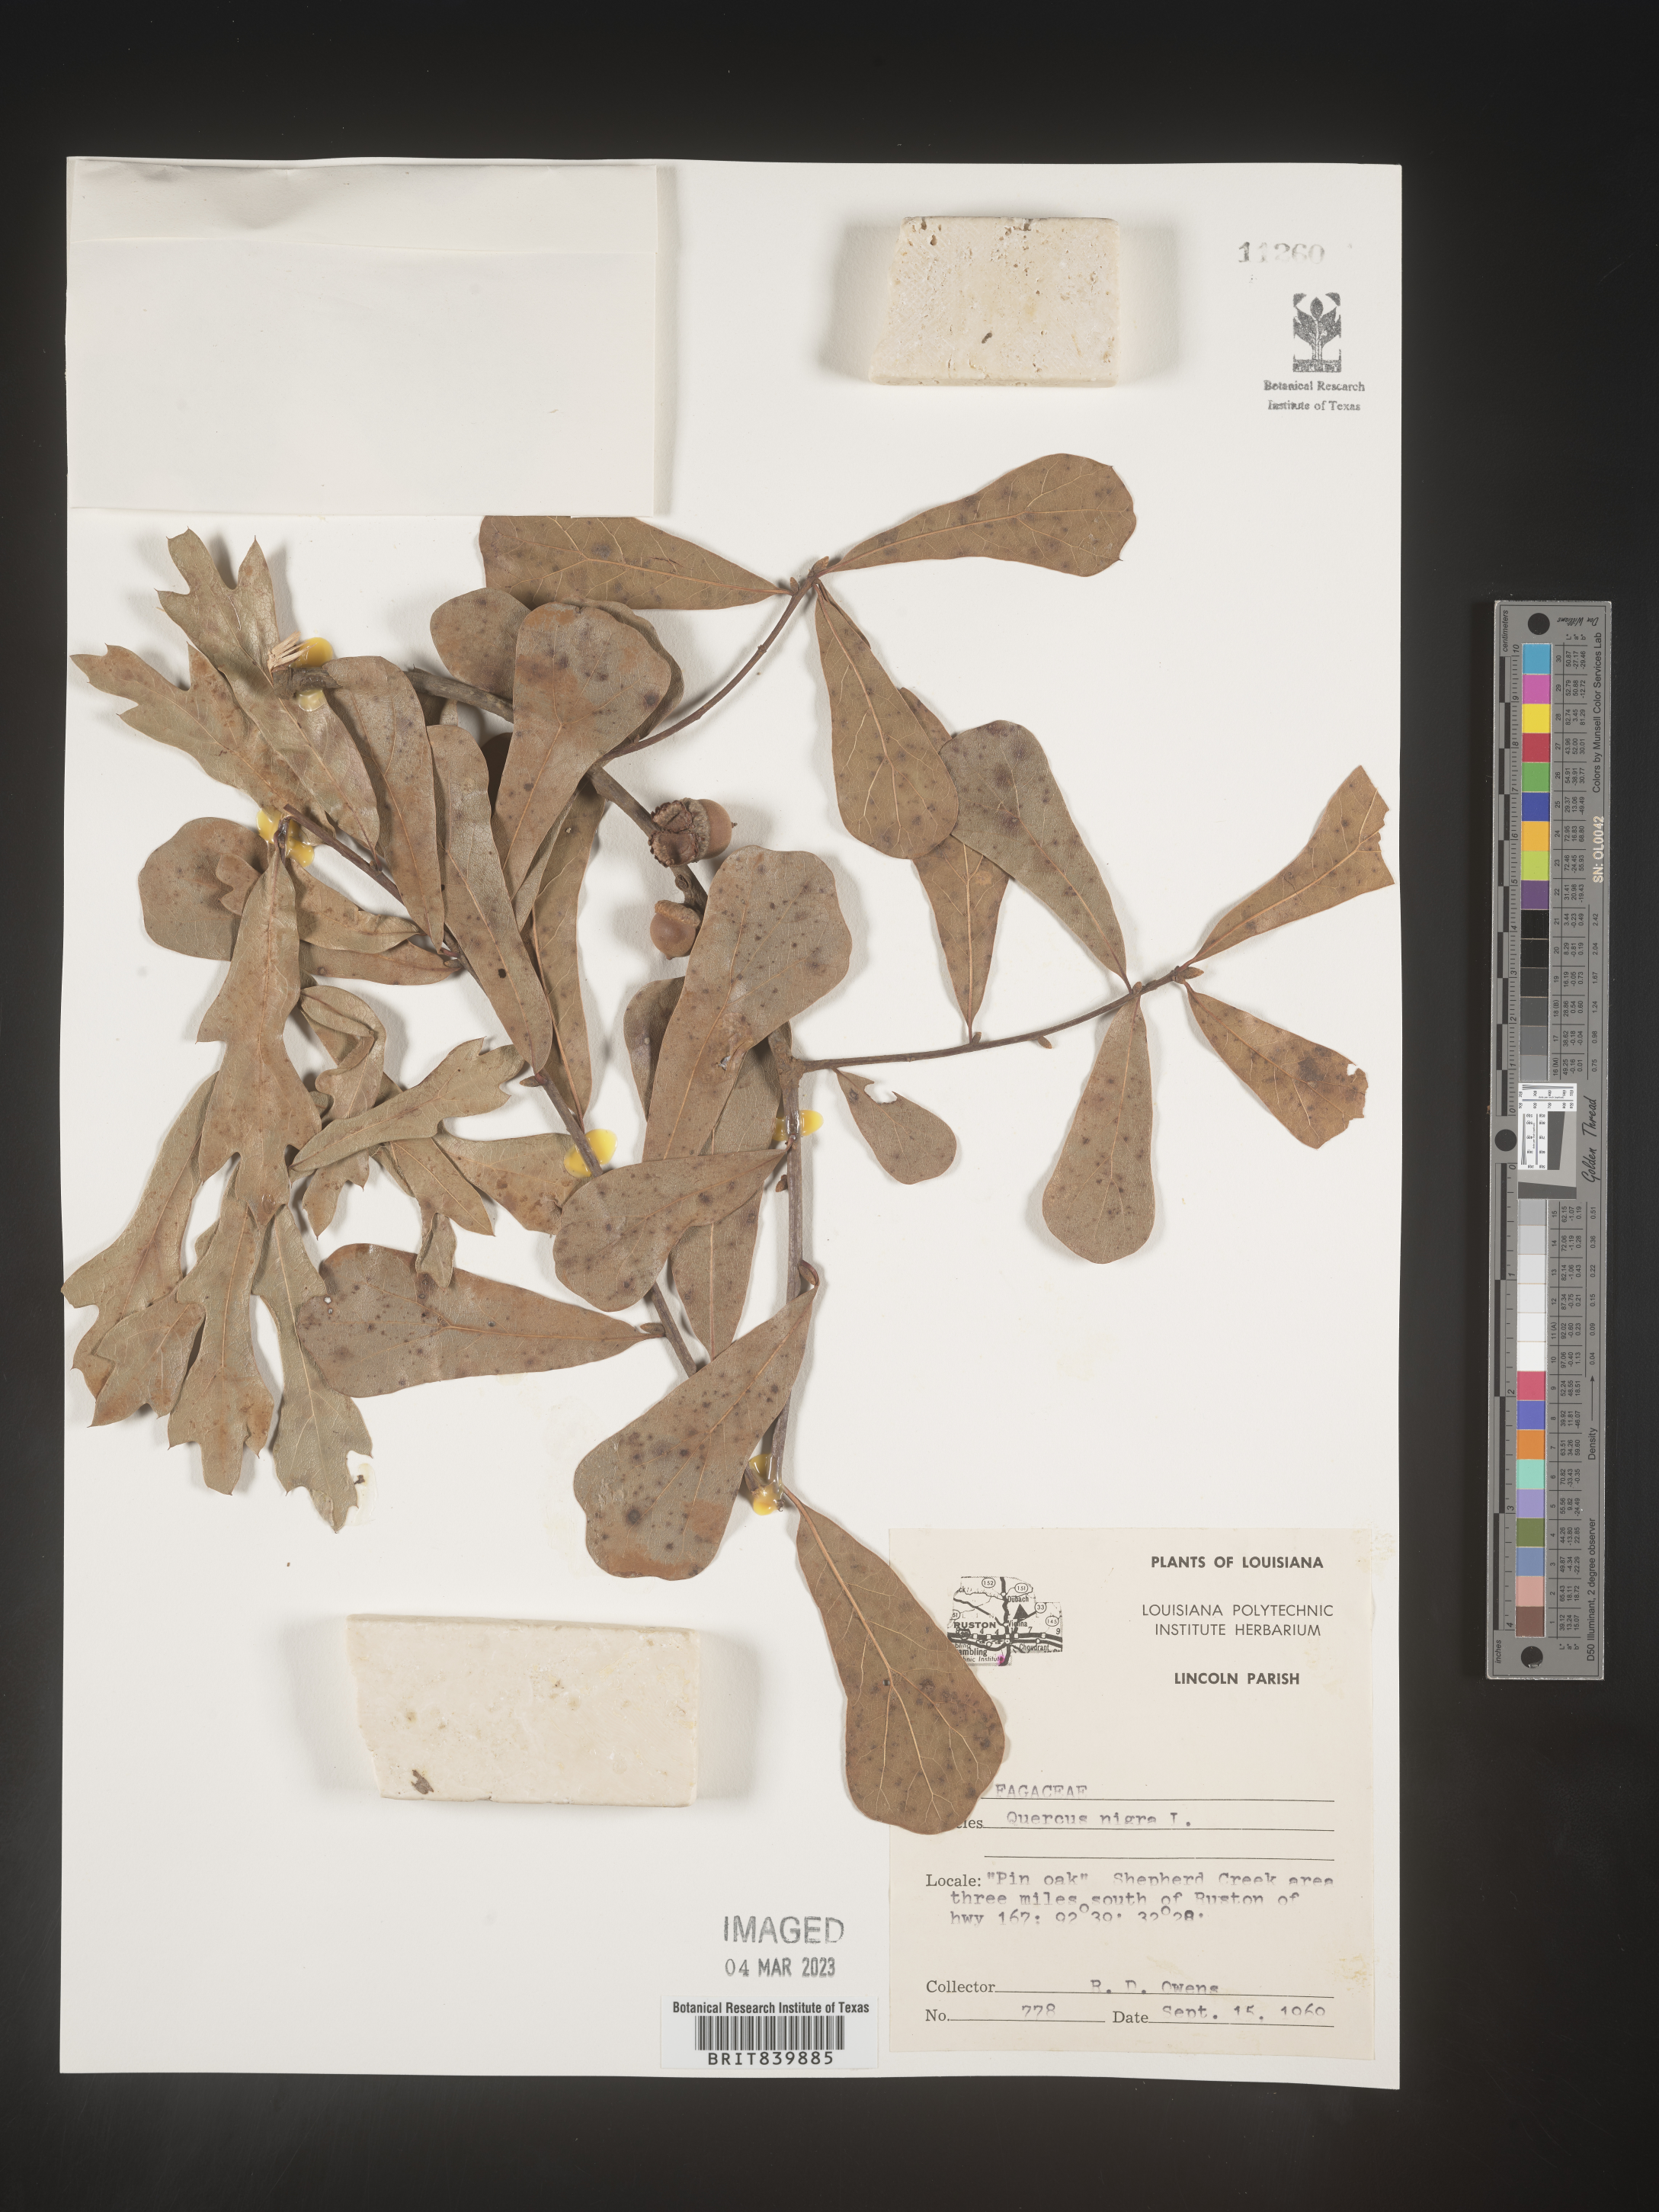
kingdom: Plantae
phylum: Tracheophyta
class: Magnoliopsida
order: Fagales
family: Fagaceae
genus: Quercus
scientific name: Quercus nigra
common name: Water oak
